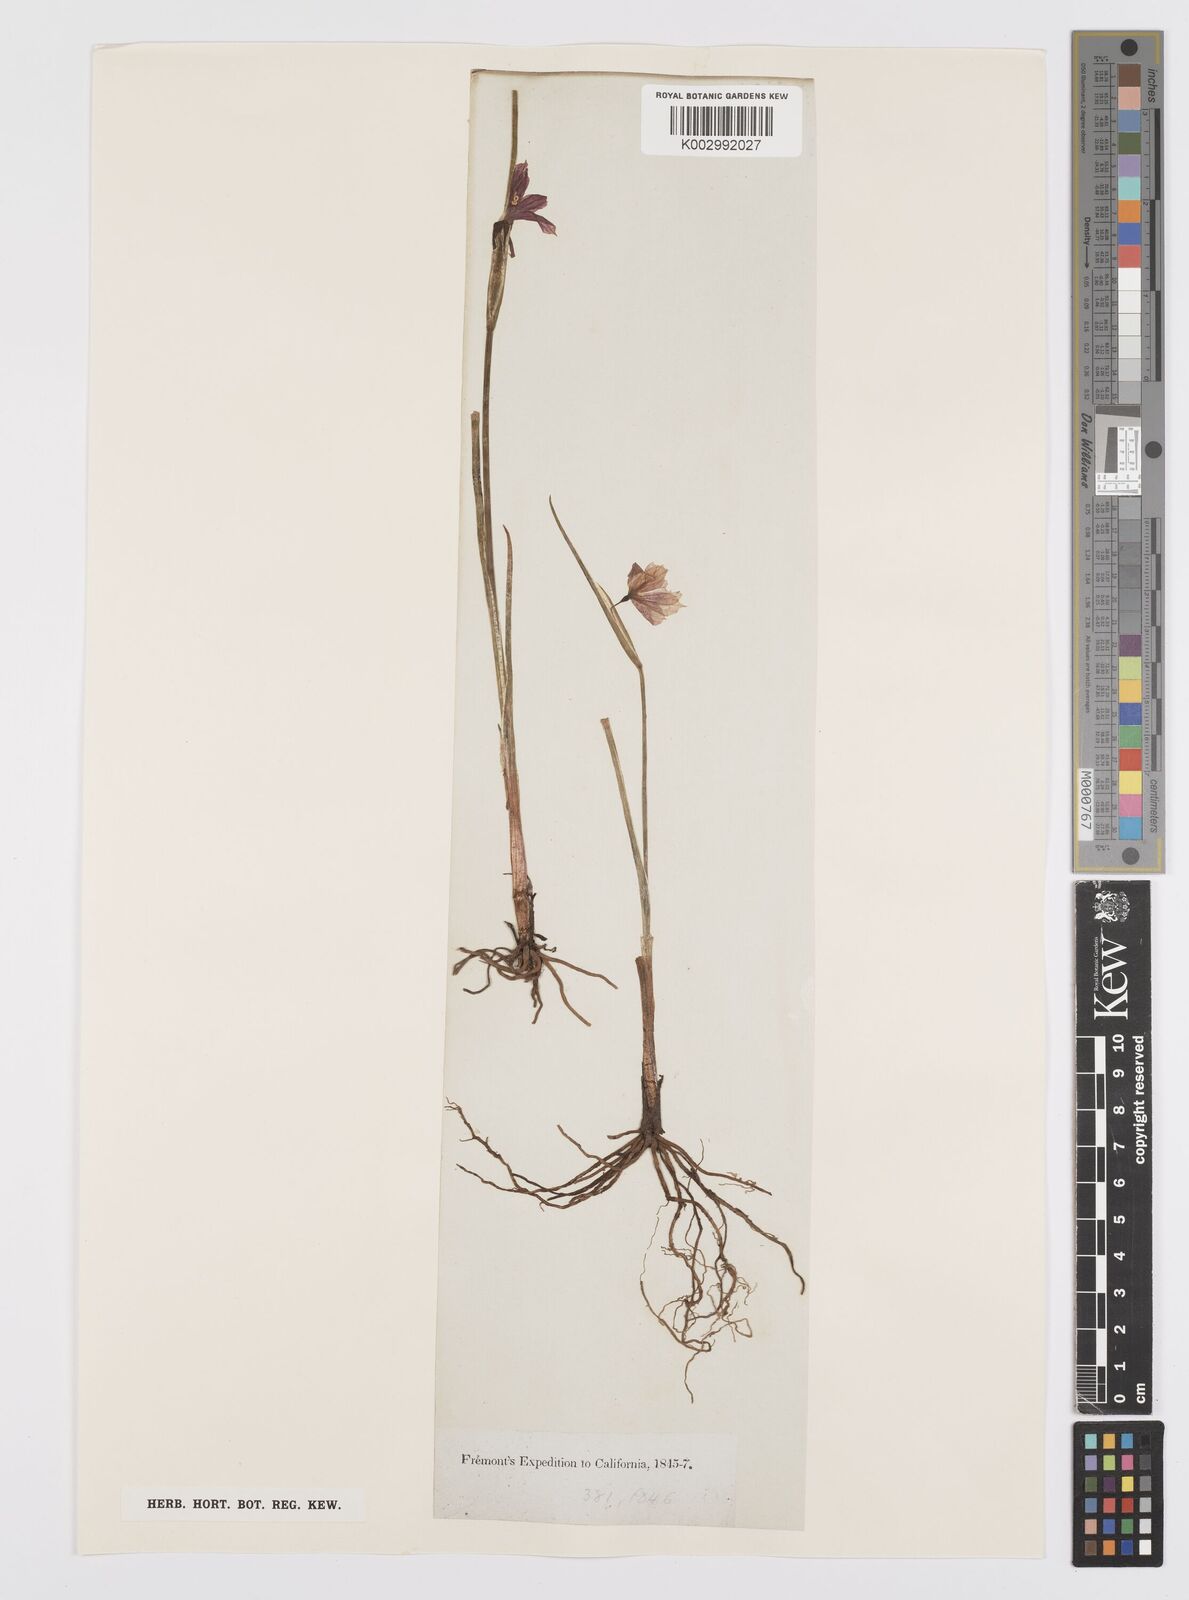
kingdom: Plantae
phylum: Tracheophyta
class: Liliopsida
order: Asparagales
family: Iridaceae
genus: Sisyrinchium
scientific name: Sisyrinchium
